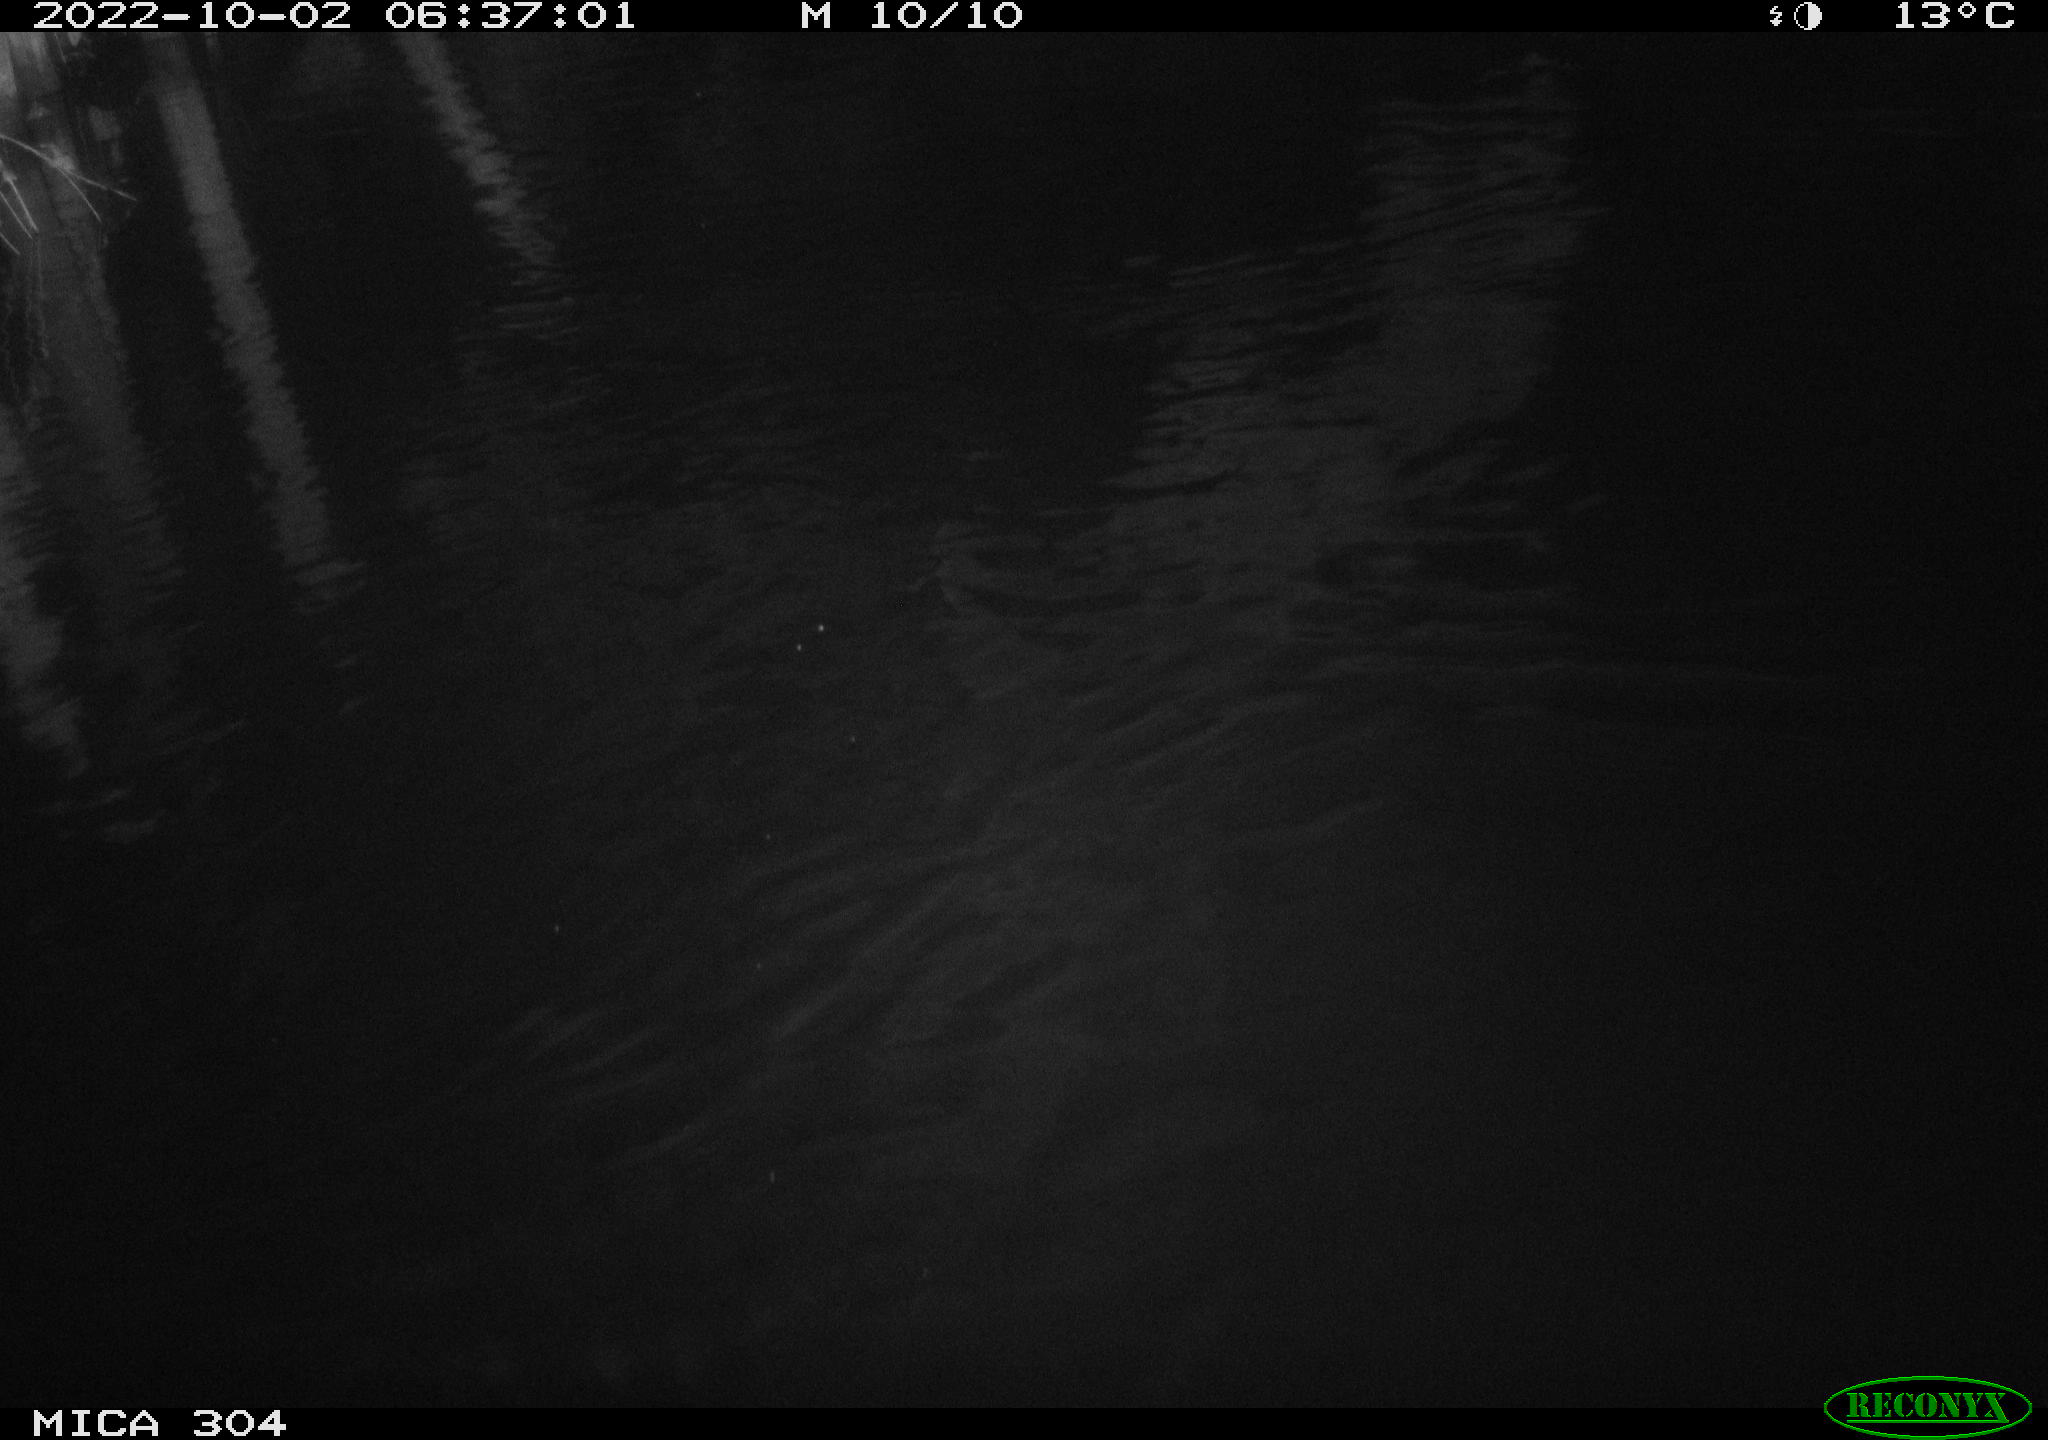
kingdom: Animalia
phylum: Chordata
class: Mammalia
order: Rodentia
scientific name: Rodentia
